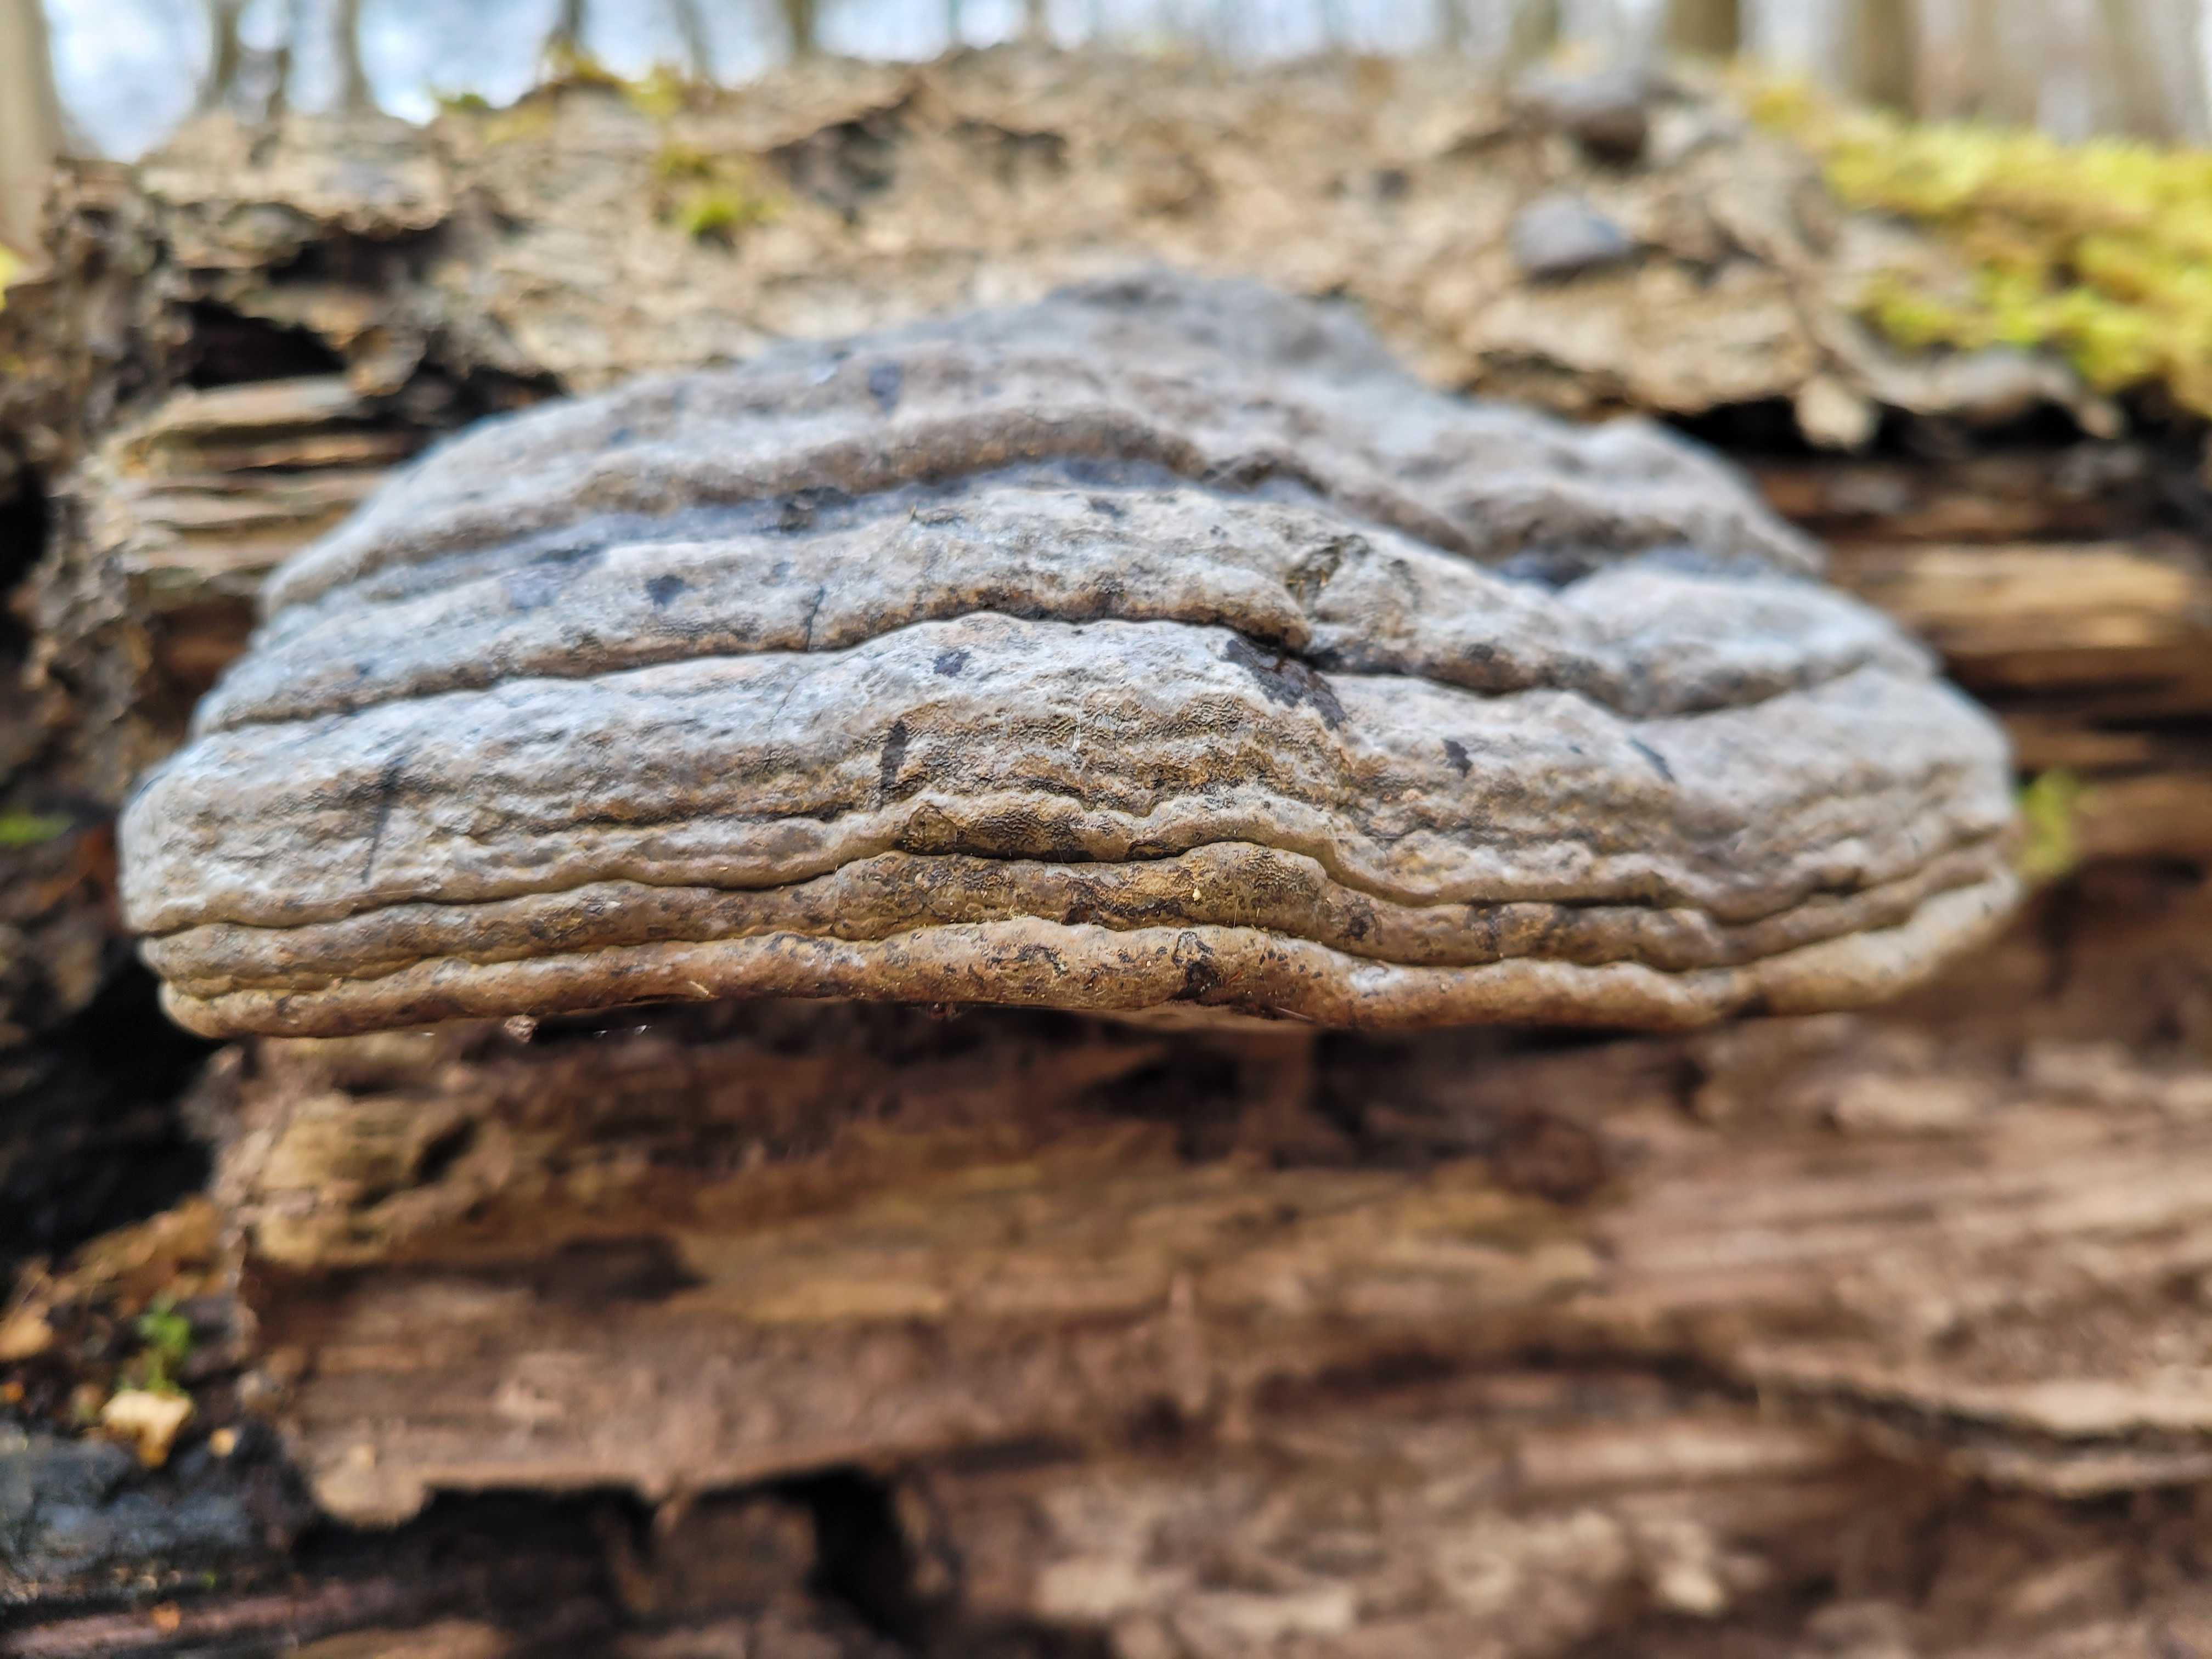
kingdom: Fungi
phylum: Basidiomycota
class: Agaricomycetes
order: Polyporales
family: Polyporaceae
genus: Fomes
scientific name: Fomes fomentarius
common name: tøndersvamp
